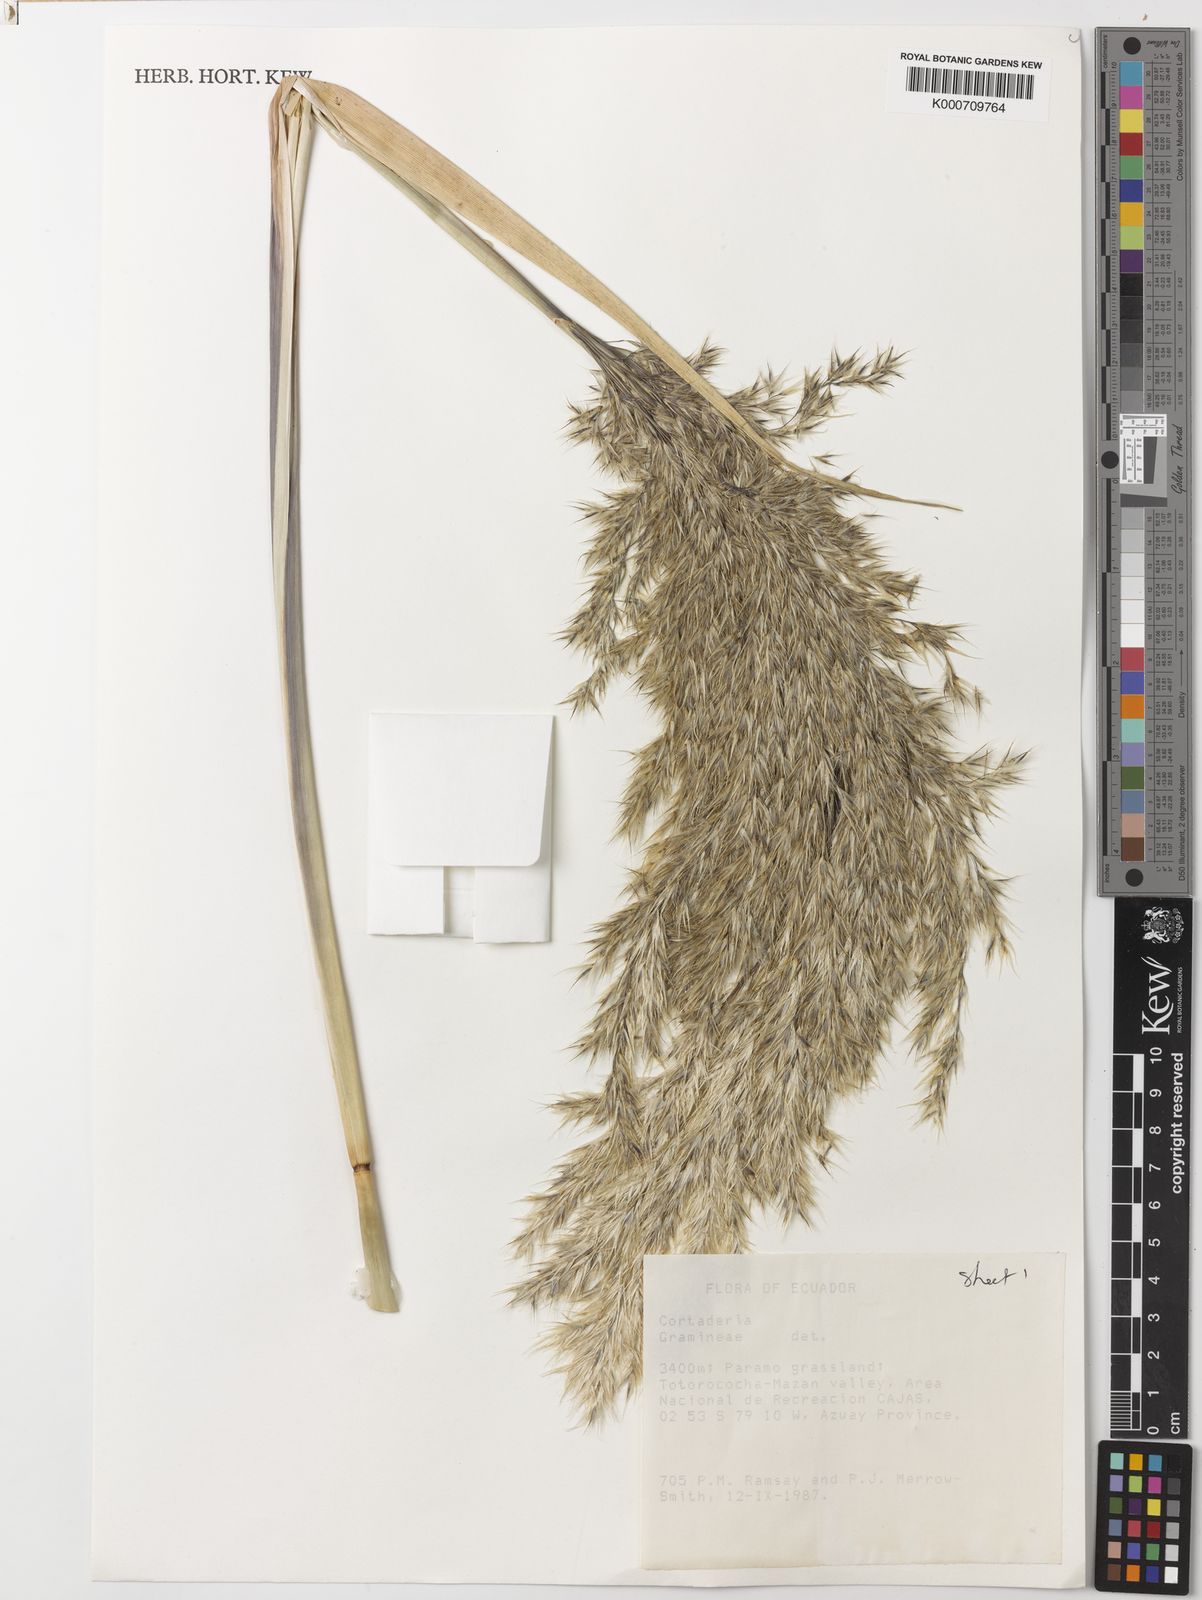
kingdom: Plantae
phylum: Tracheophyta
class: Liliopsida
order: Poales
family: Poaceae
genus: Cortaderia
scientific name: Cortaderia nitida
